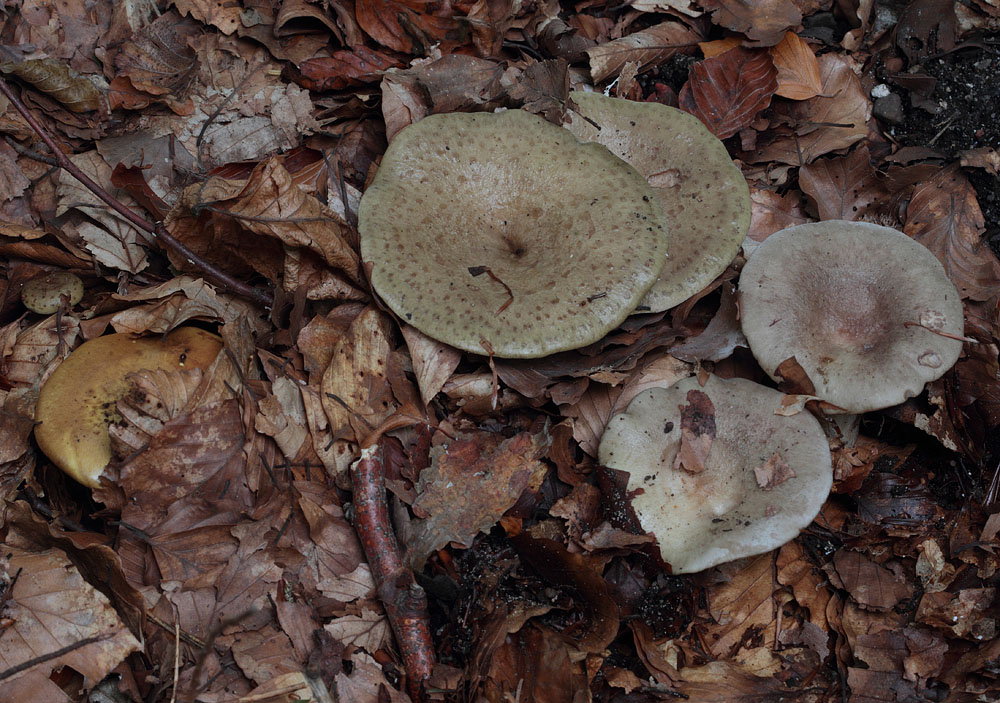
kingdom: Fungi
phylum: Basidiomycota
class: Agaricomycetes
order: Russulales
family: Russulaceae
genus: Lactarius
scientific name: Lactarius blennius
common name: dråbeplettet mælkehat
